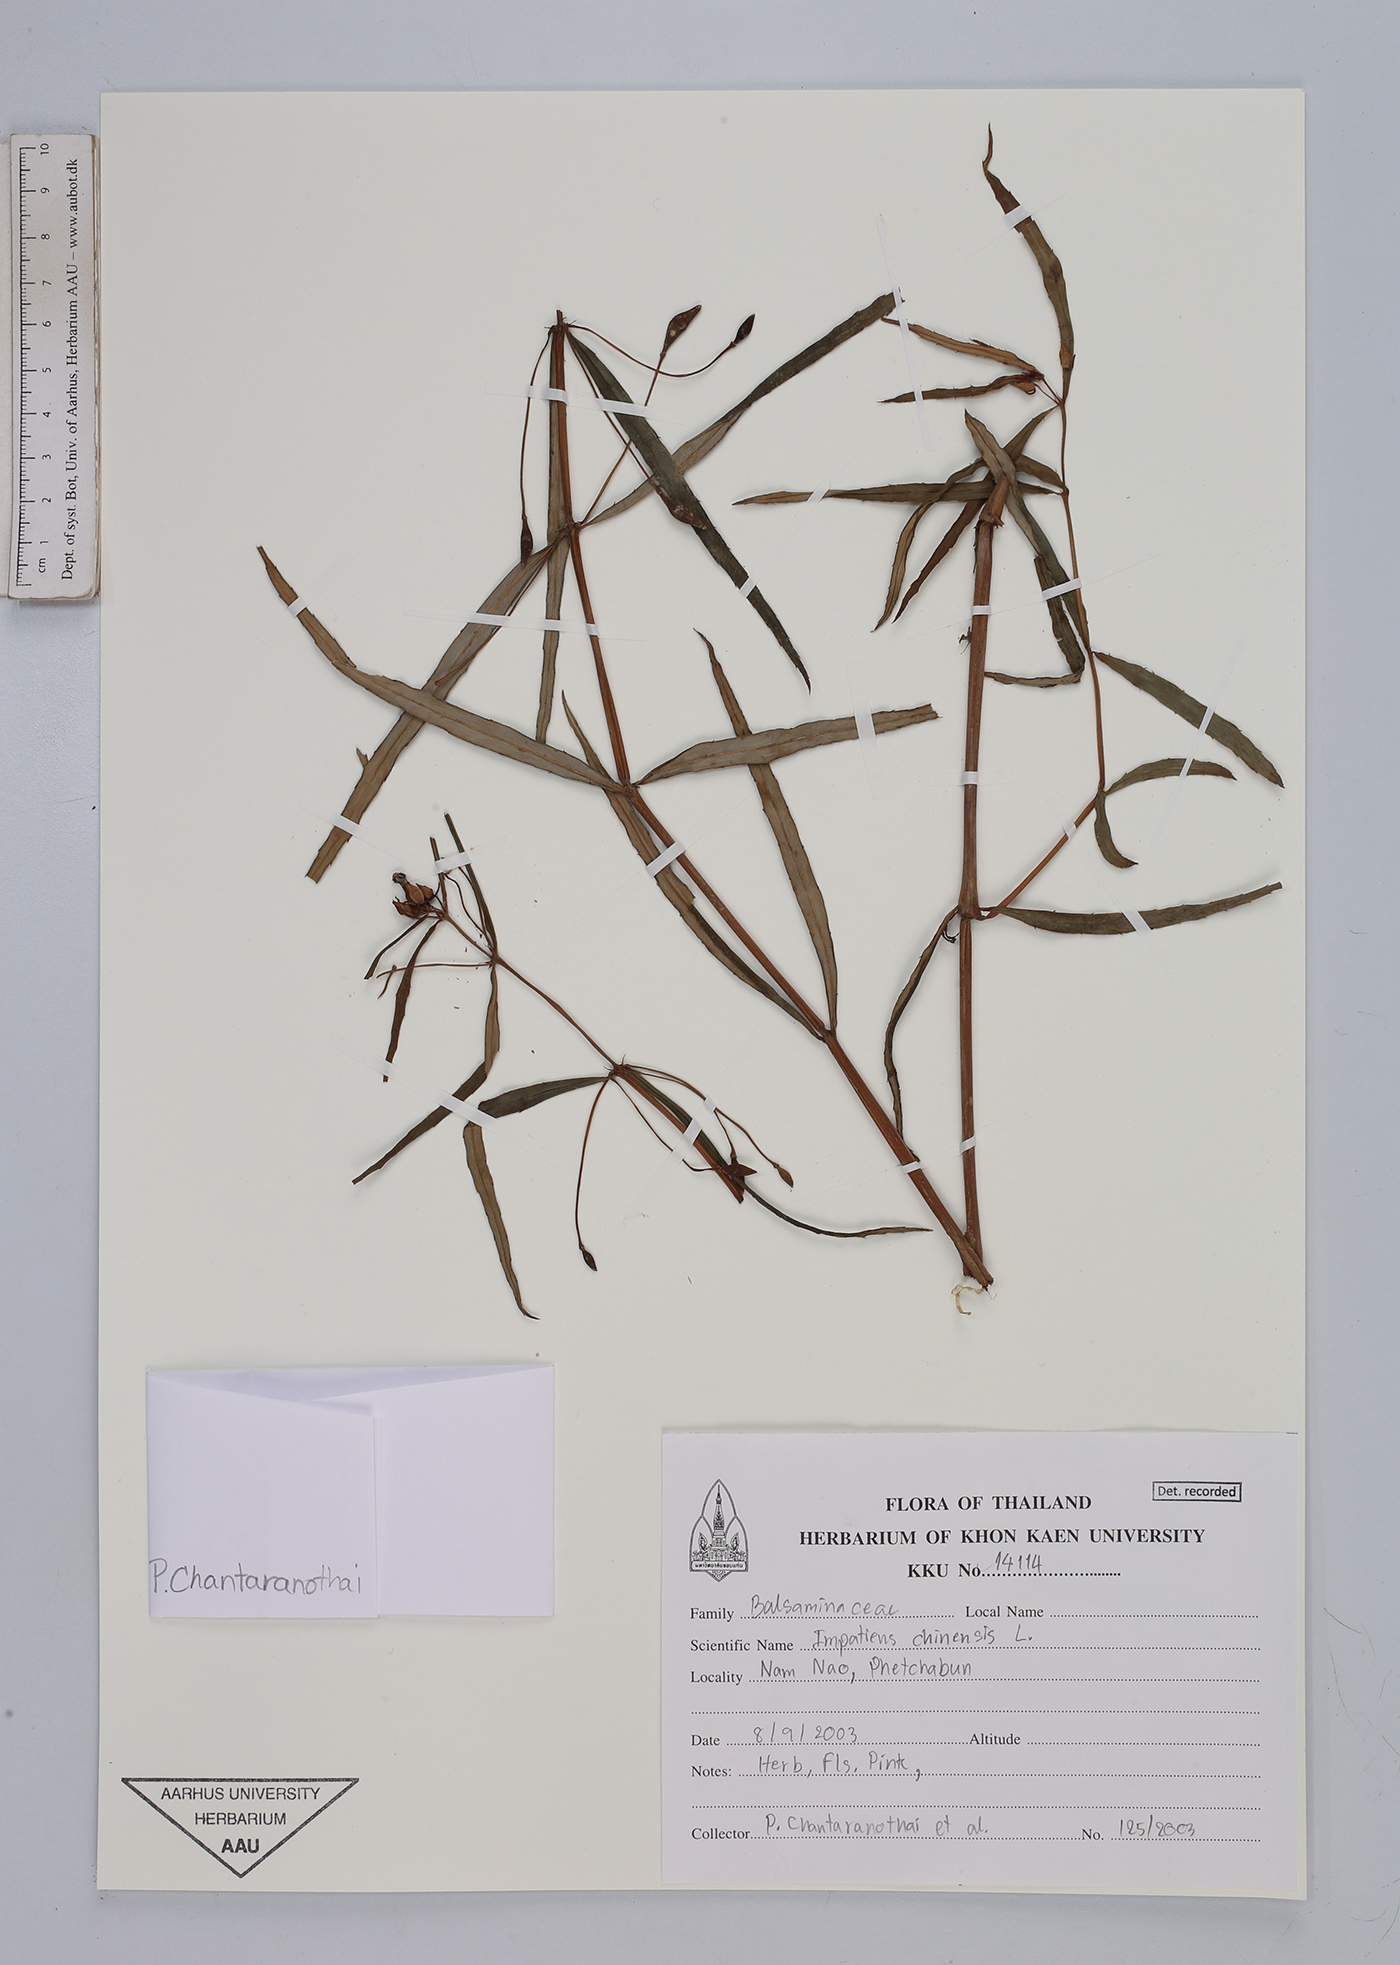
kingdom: Plantae
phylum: Tracheophyta
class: Magnoliopsida
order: Ericales
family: Balsaminaceae
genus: Impatiens
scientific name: Impatiens chinensis
